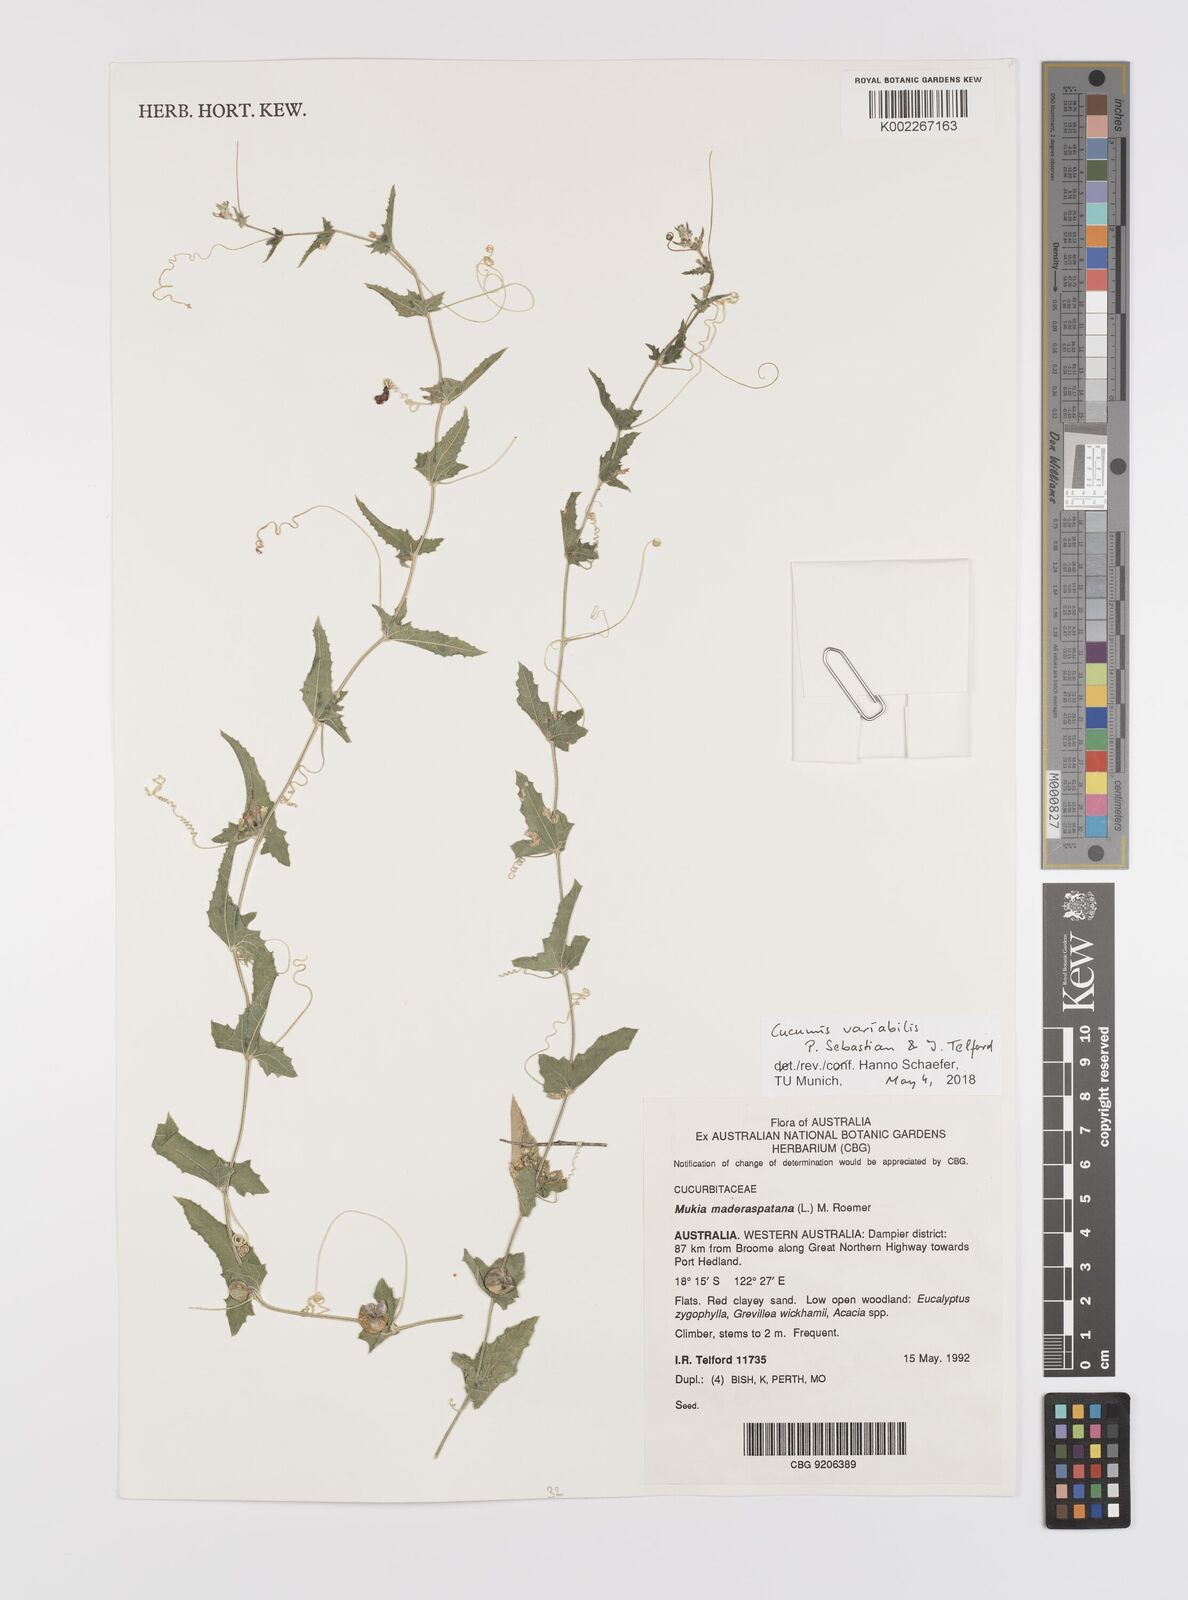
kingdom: Plantae
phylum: Tracheophyta
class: Magnoliopsida
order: Cucurbitales
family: Cucurbitaceae
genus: Cucumis
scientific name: Cucumis maderaspatanus
